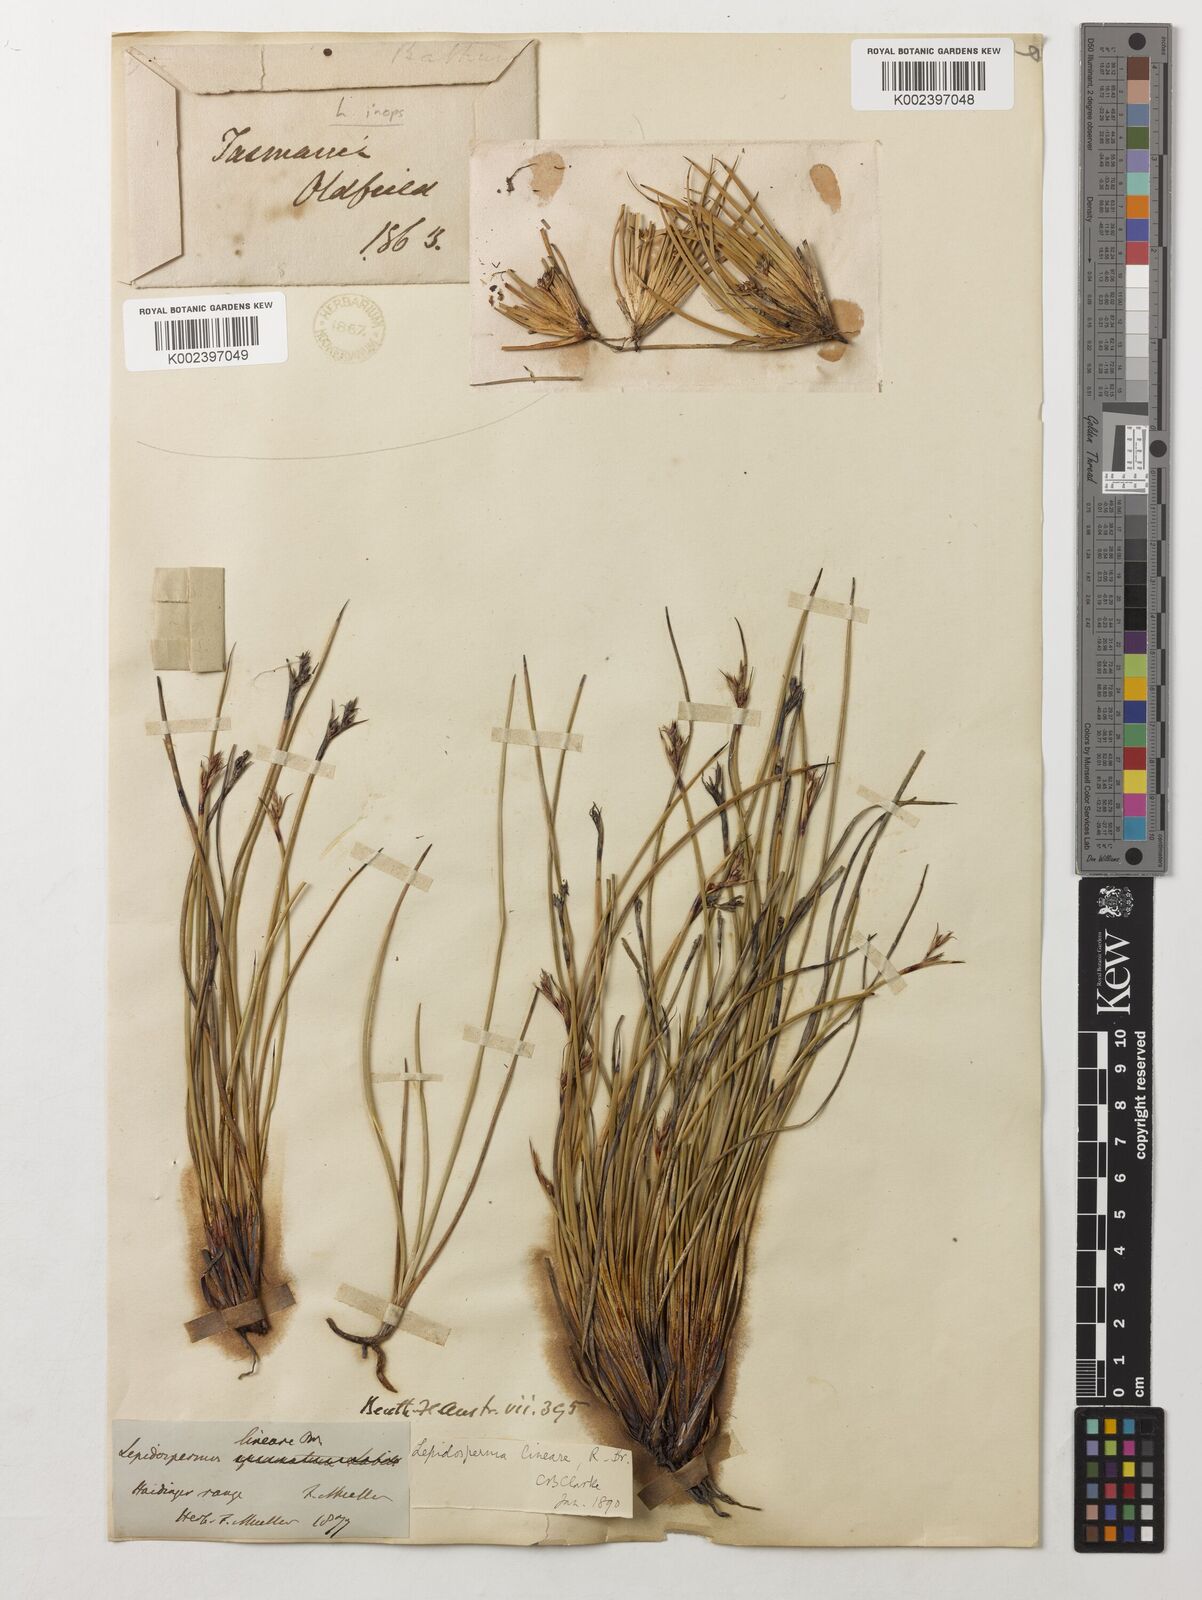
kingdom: Plantae
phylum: Tracheophyta
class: Liliopsida
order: Poales
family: Cyperaceae
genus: Lepidosperma
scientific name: Lepidosperma inops
